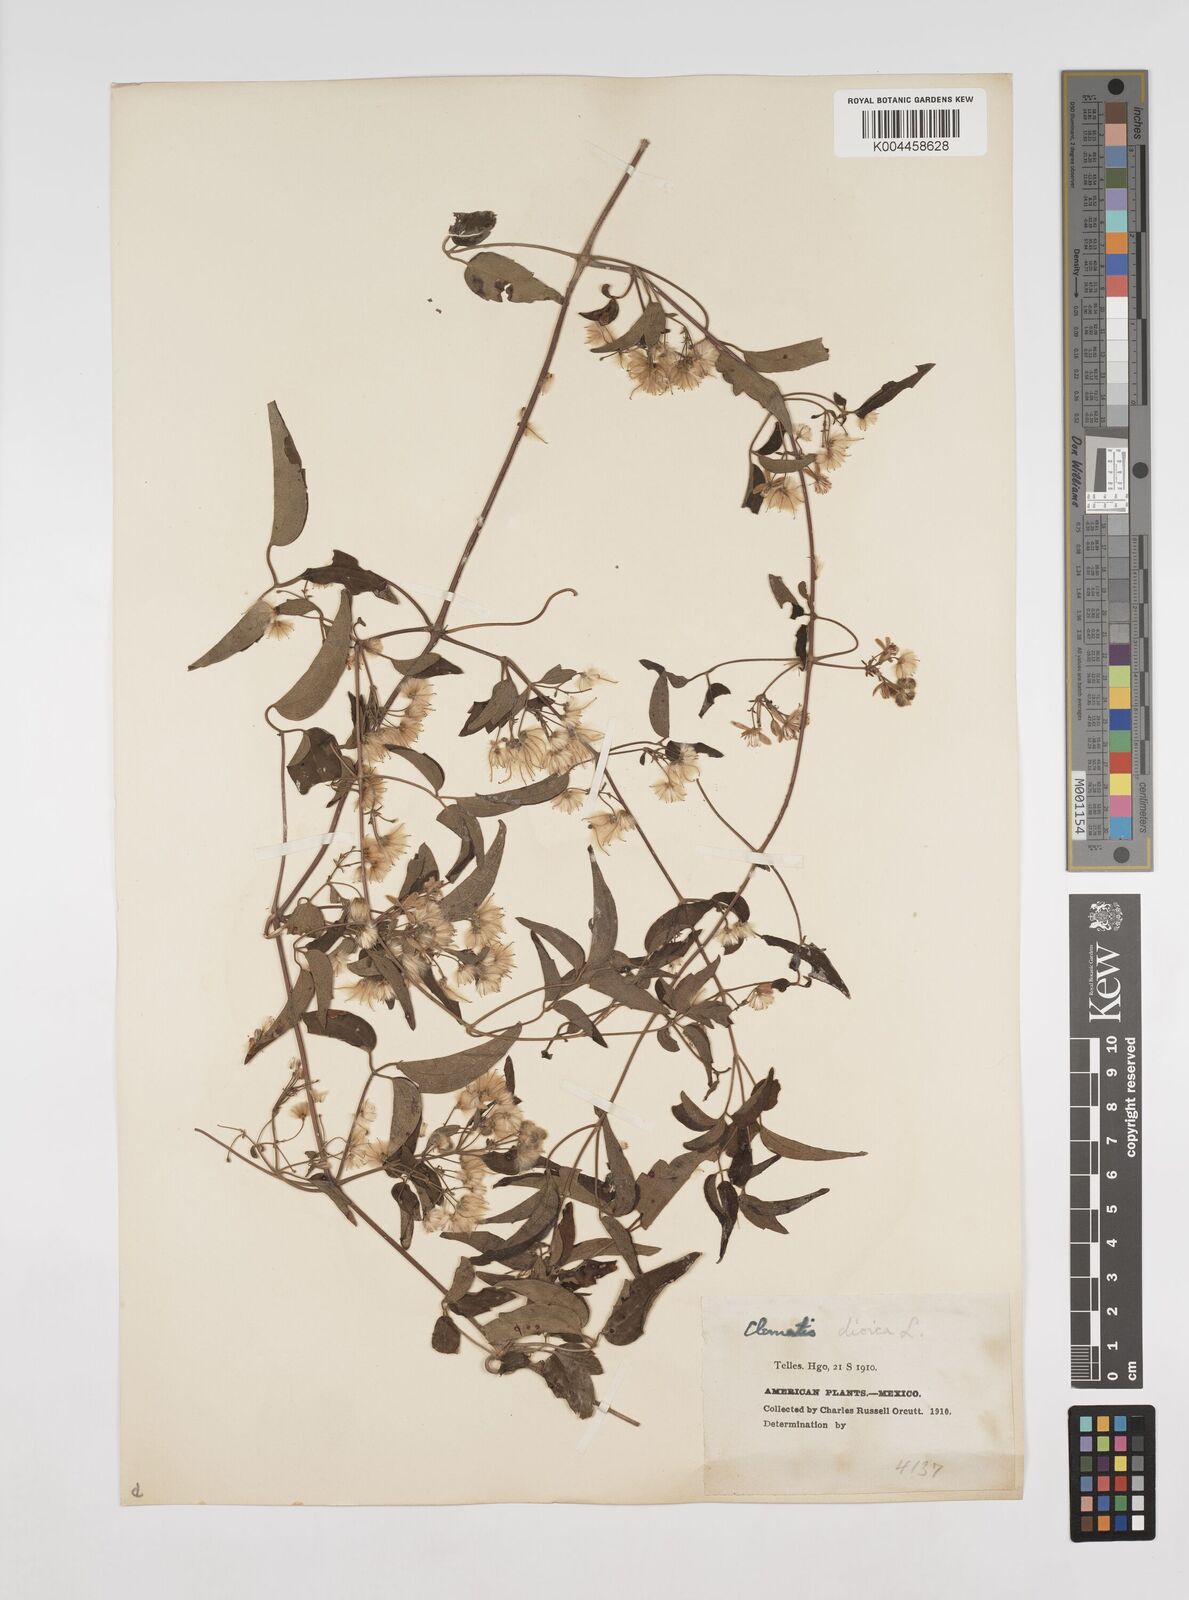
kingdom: Plantae
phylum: Tracheophyta
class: Magnoliopsida
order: Ranunculales
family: Ranunculaceae
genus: Clematis
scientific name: Clematis dioica
